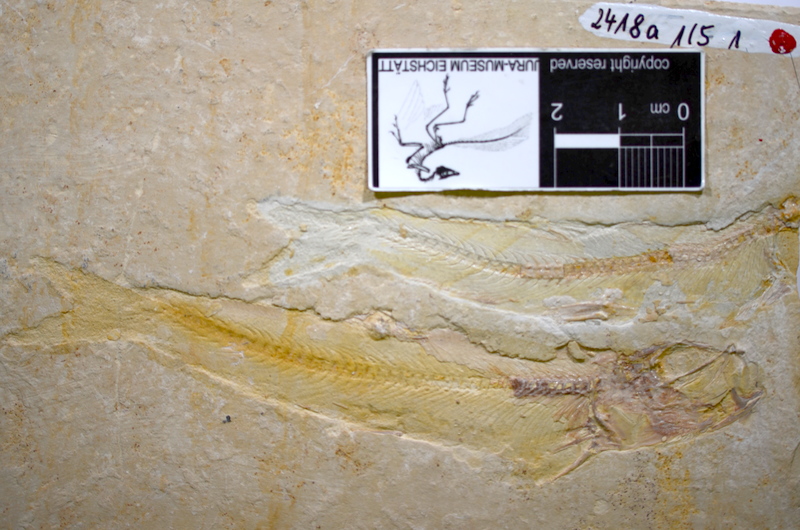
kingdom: Animalia
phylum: Chordata
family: Ascalaboidae
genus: Tharsis
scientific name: Tharsis
